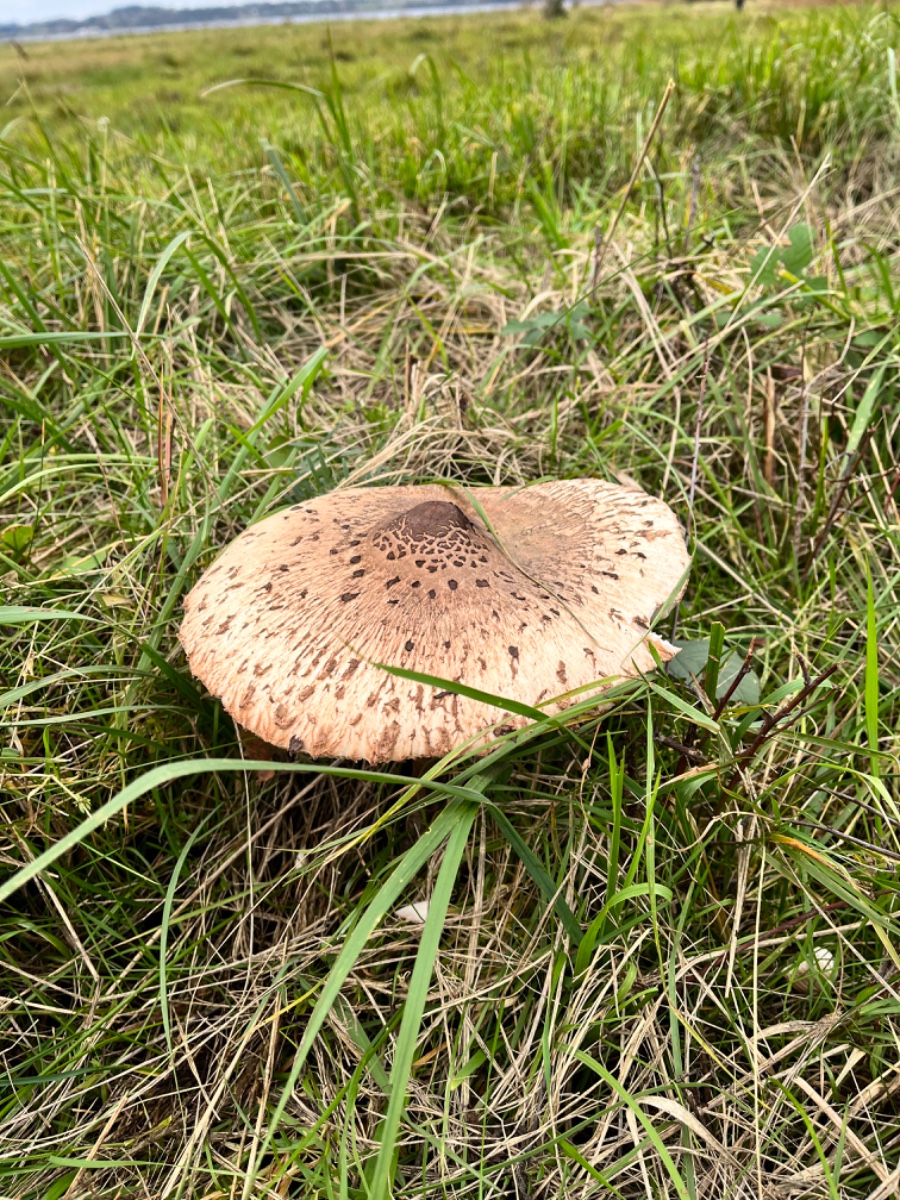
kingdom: Fungi
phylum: Basidiomycota
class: Agaricomycetes
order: Agaricales
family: Agaricaceae
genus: Macrolepiota
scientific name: Macrolepiota procera
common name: stor kæmpeparasolhat
